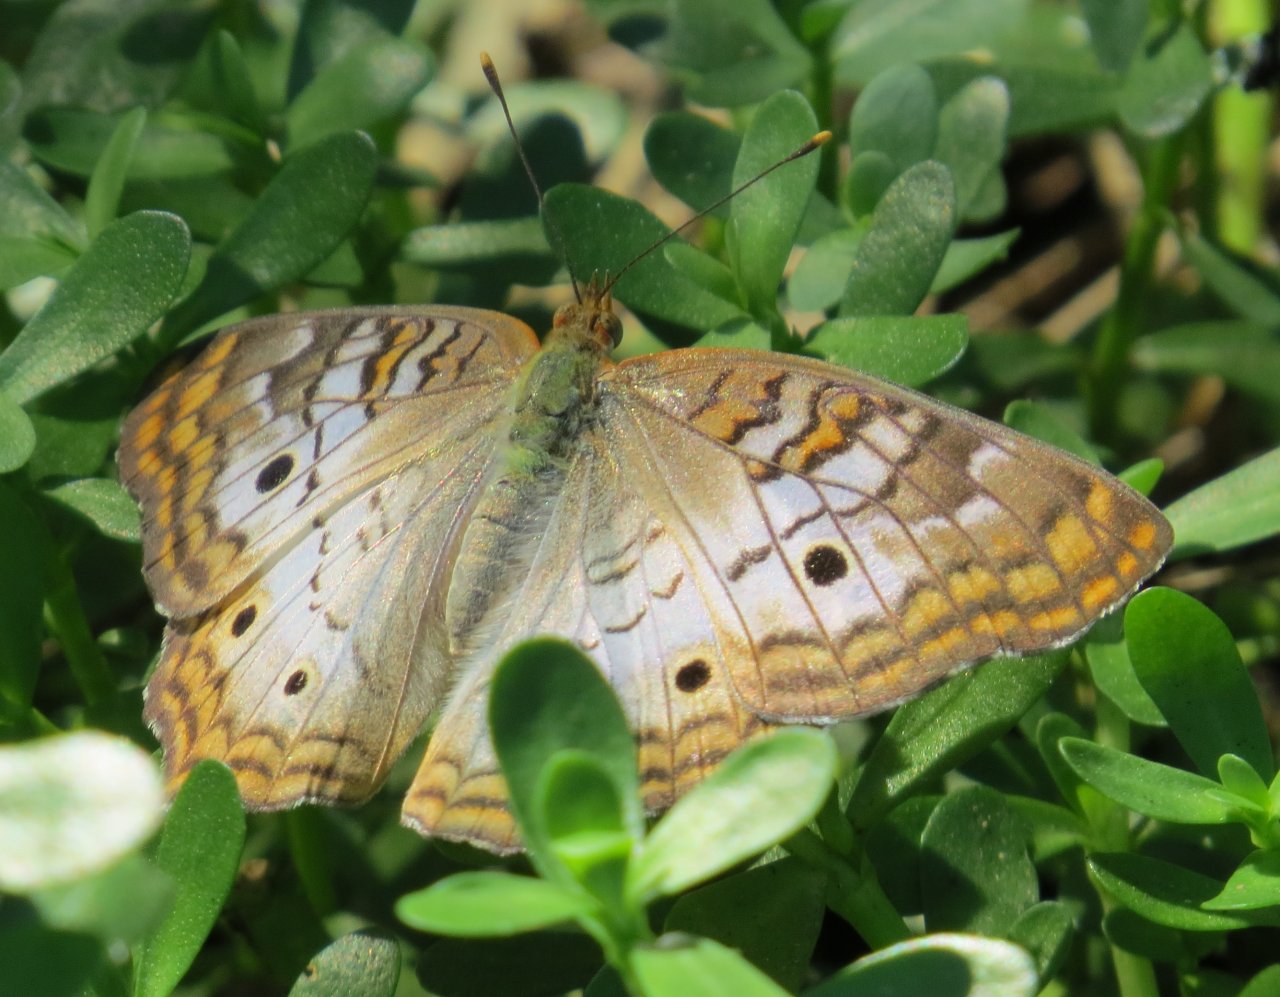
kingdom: Animalia
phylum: Arthropoda
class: Insecta
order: Lepidoptera
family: Nymphalidae
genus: Anartia
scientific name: Anartia jatrophae
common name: White Peacock
